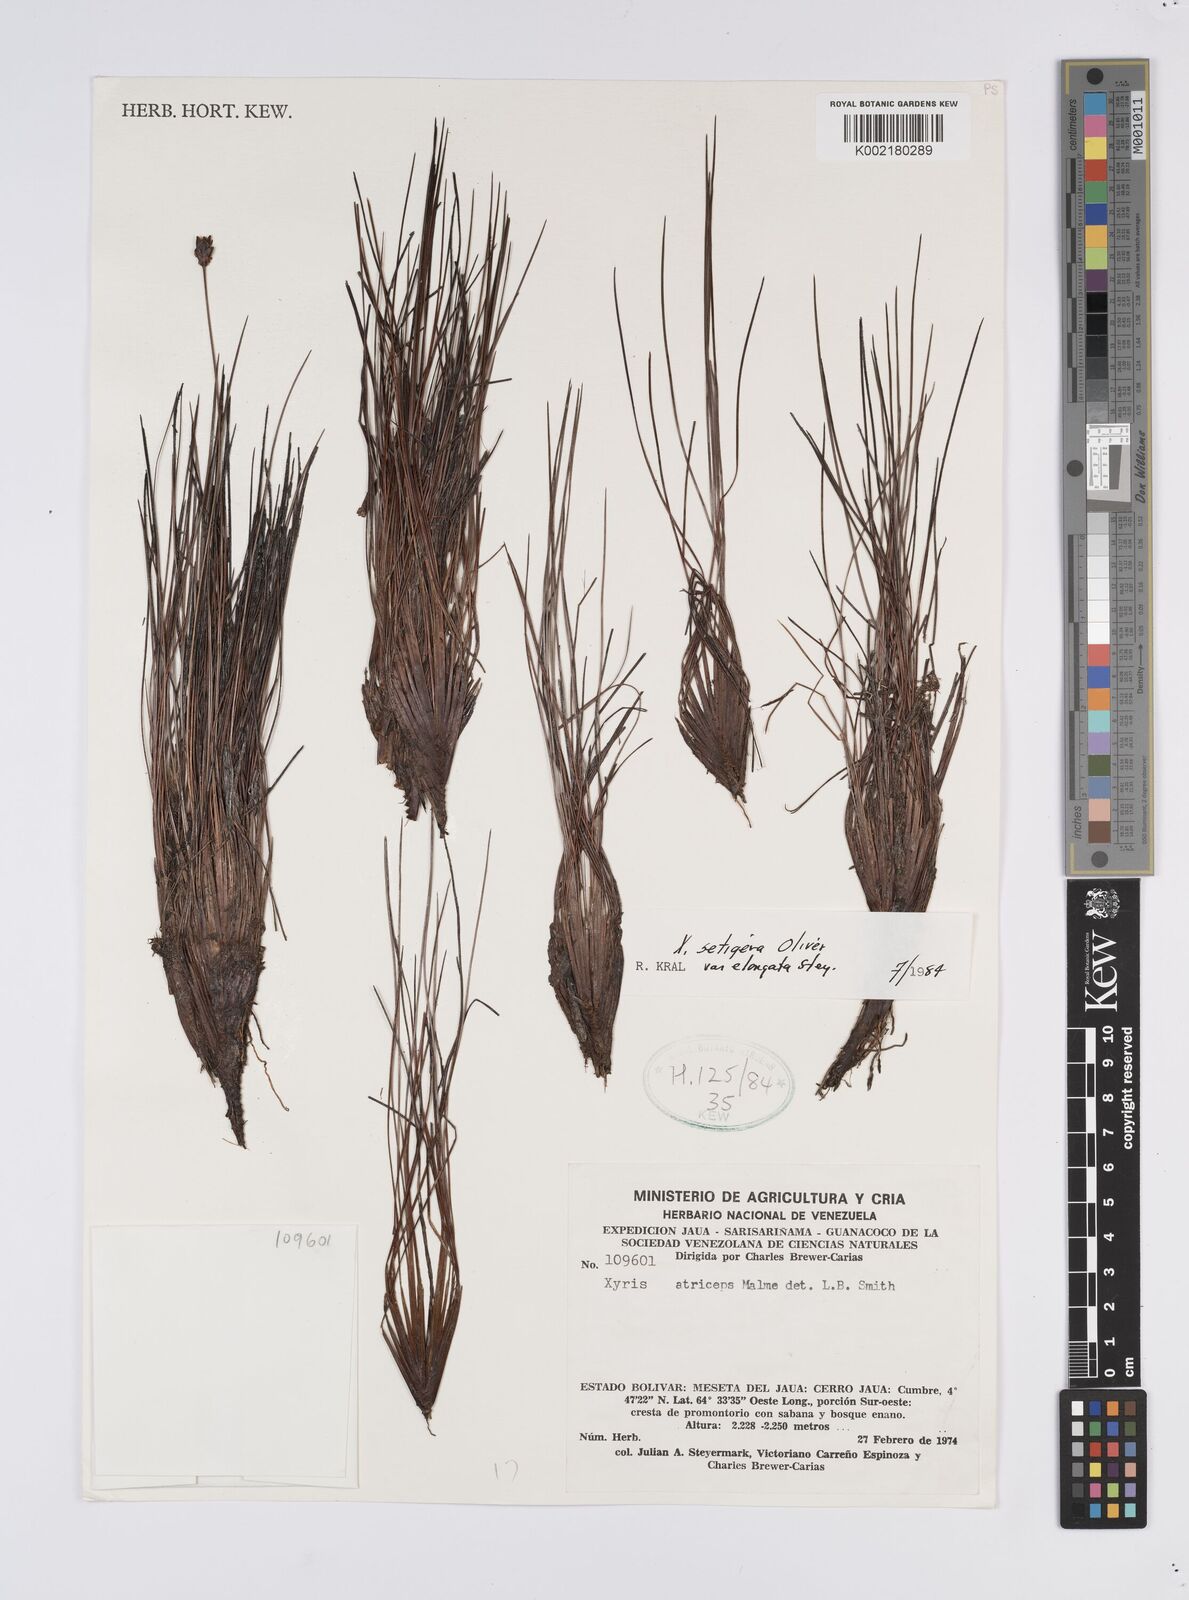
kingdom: Plantae
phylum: Tracheophyta
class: Liliopsida
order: Poales
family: Xyridaceae
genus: Xyris
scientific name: Xyris setigera
